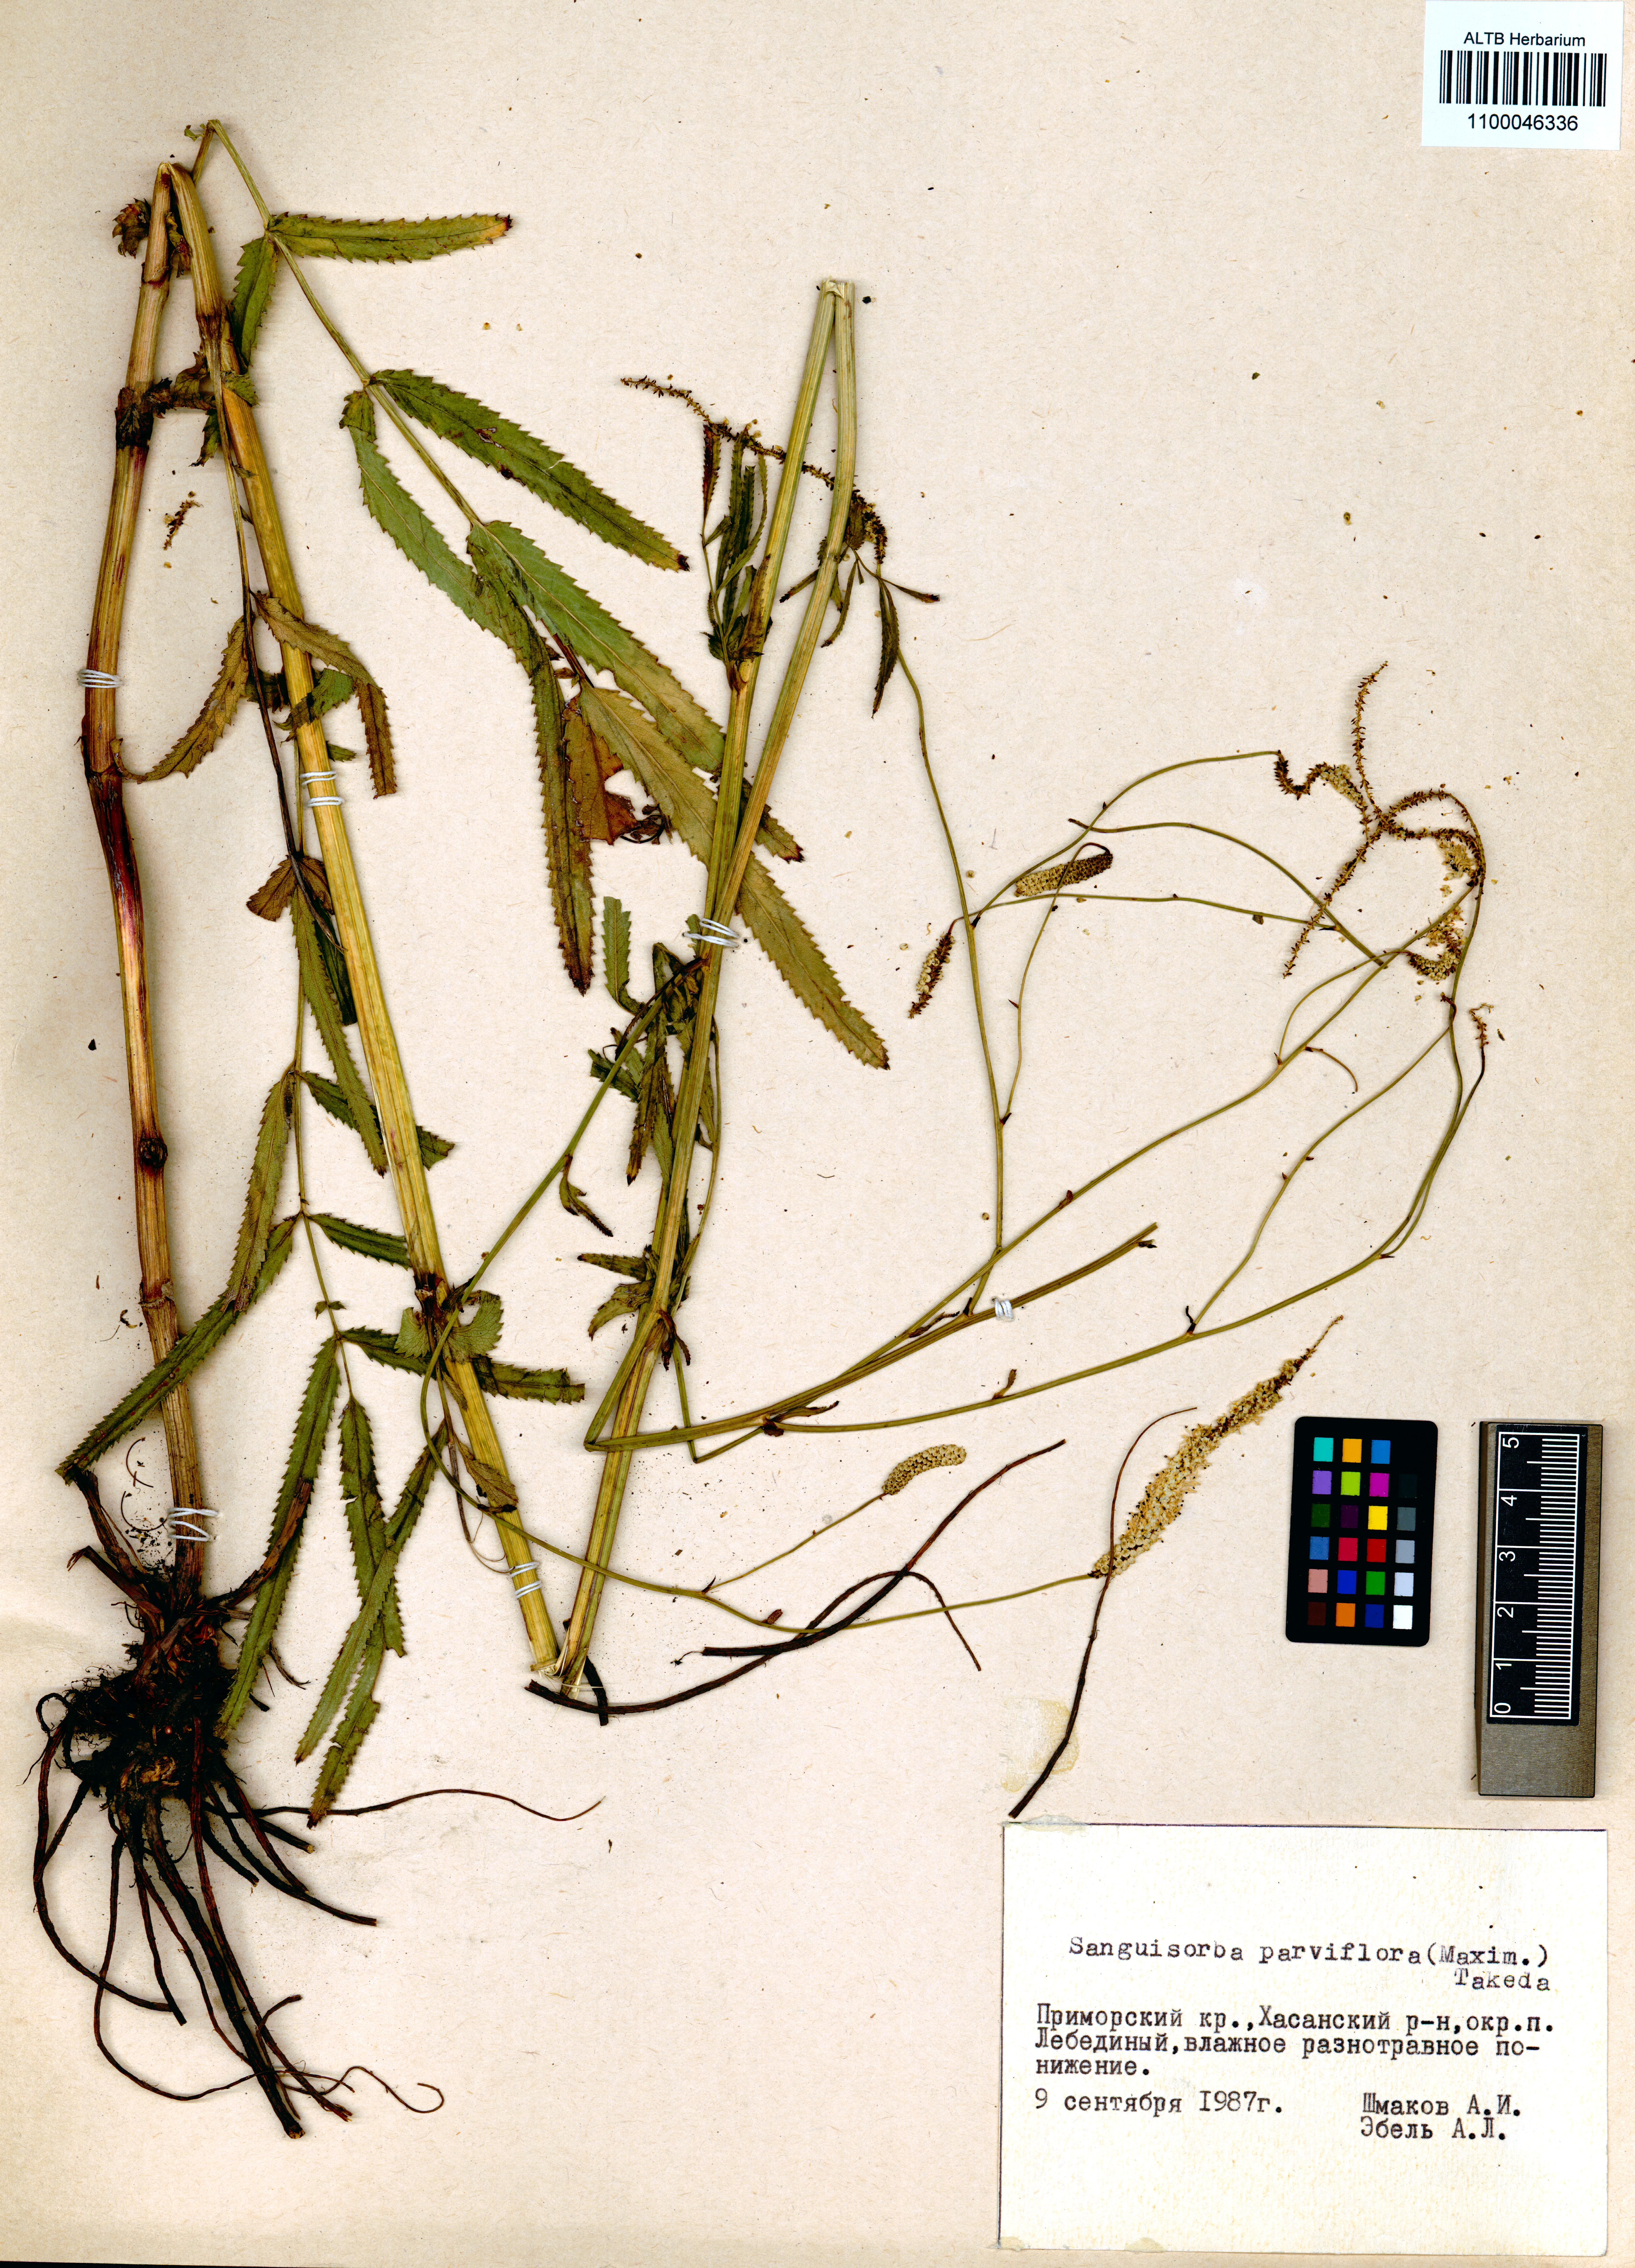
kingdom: Plantae
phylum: Tracheophyta
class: Magnoliopsida
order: Rosales
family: Rosaceae
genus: Poterium
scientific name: Poterium tenuifolium
